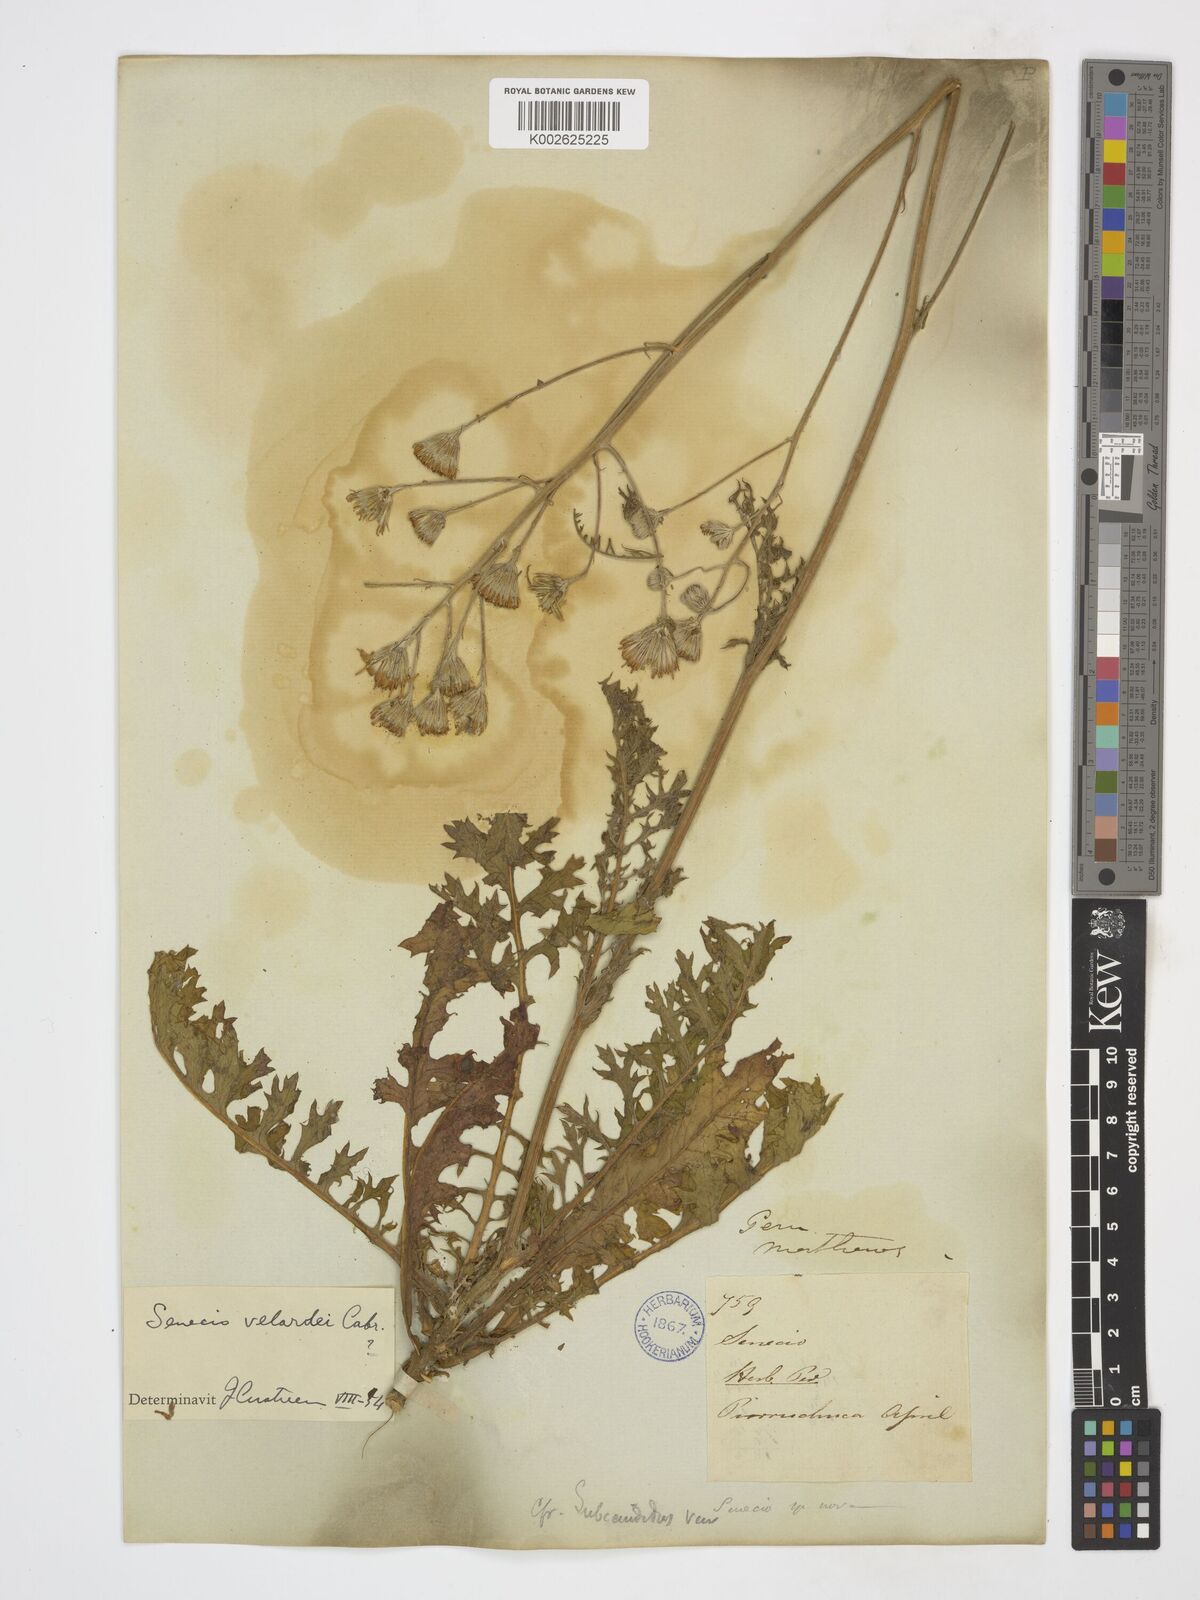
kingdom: Plantae
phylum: Tracheophyta
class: Magnoliopsida
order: Asterales
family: Asteraceae
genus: Lomanthus
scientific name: Lomanthus velardei
